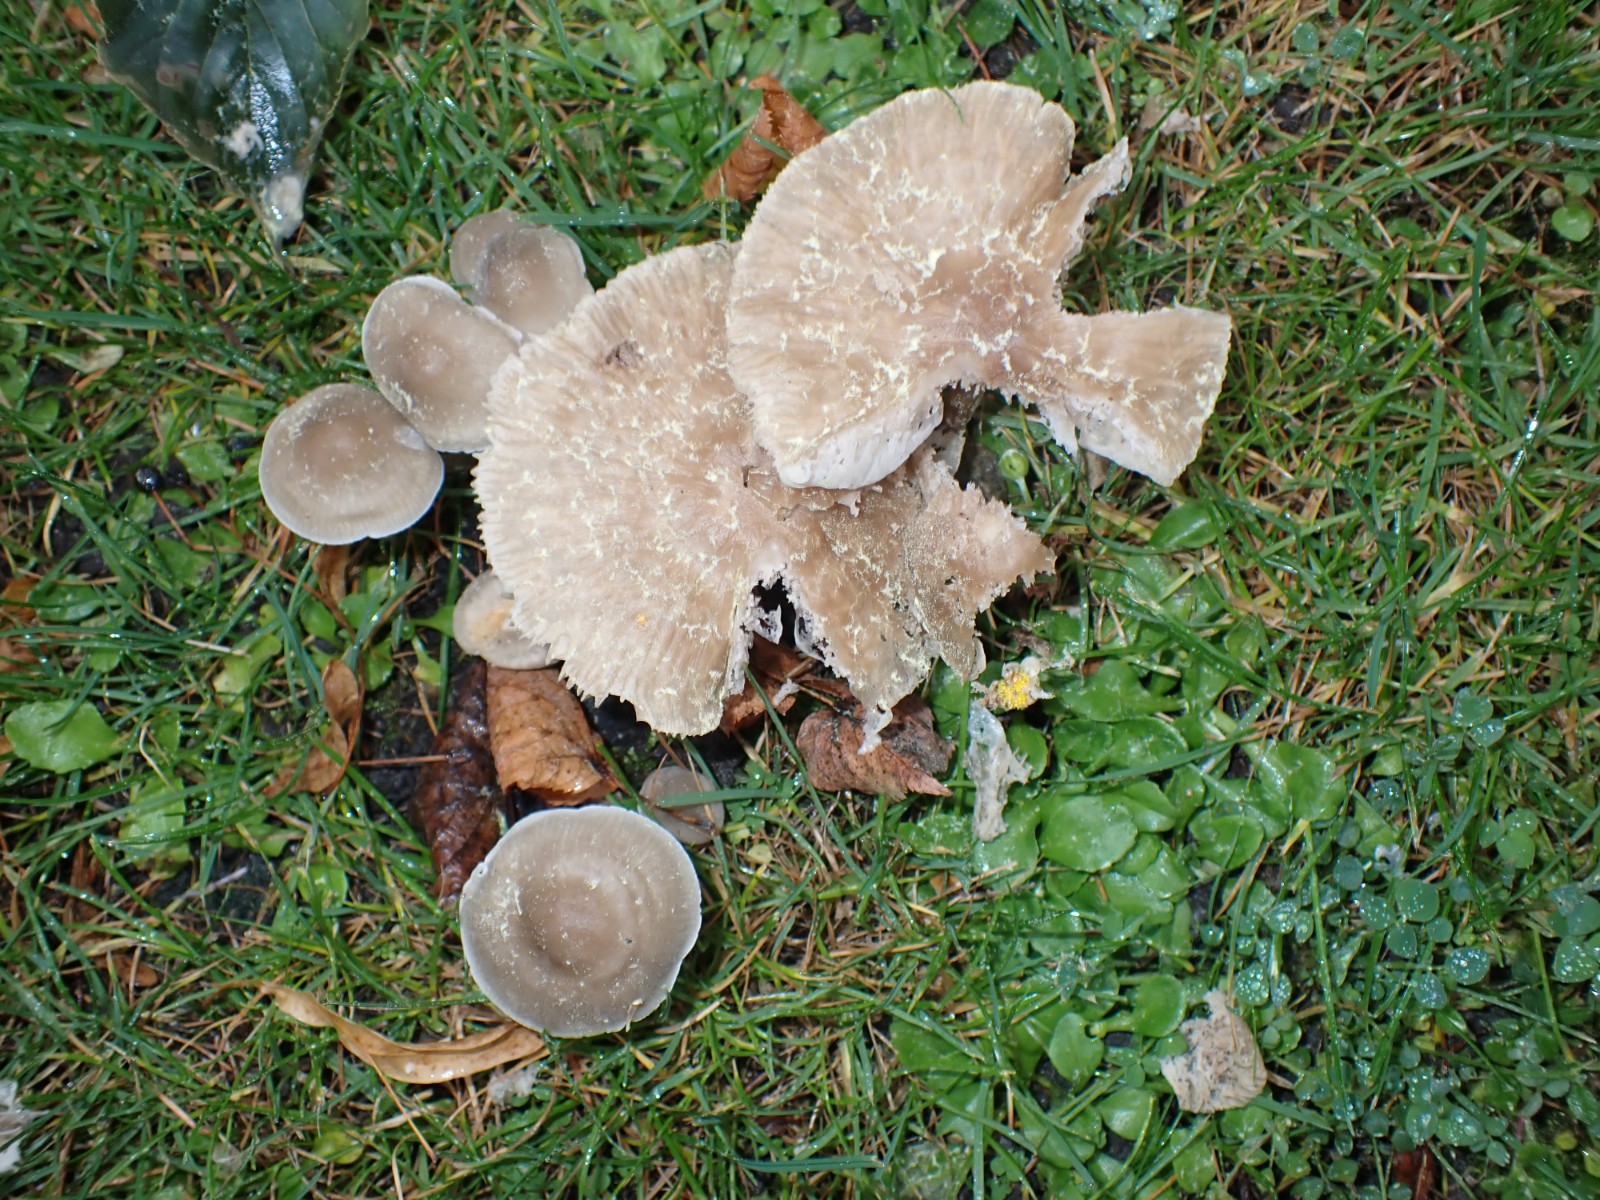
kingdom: Fungi
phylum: Basidiomycota
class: Agaricomycetes
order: Agaricales
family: Mycenaceae
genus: Mycena
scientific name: Mycena galericulata
